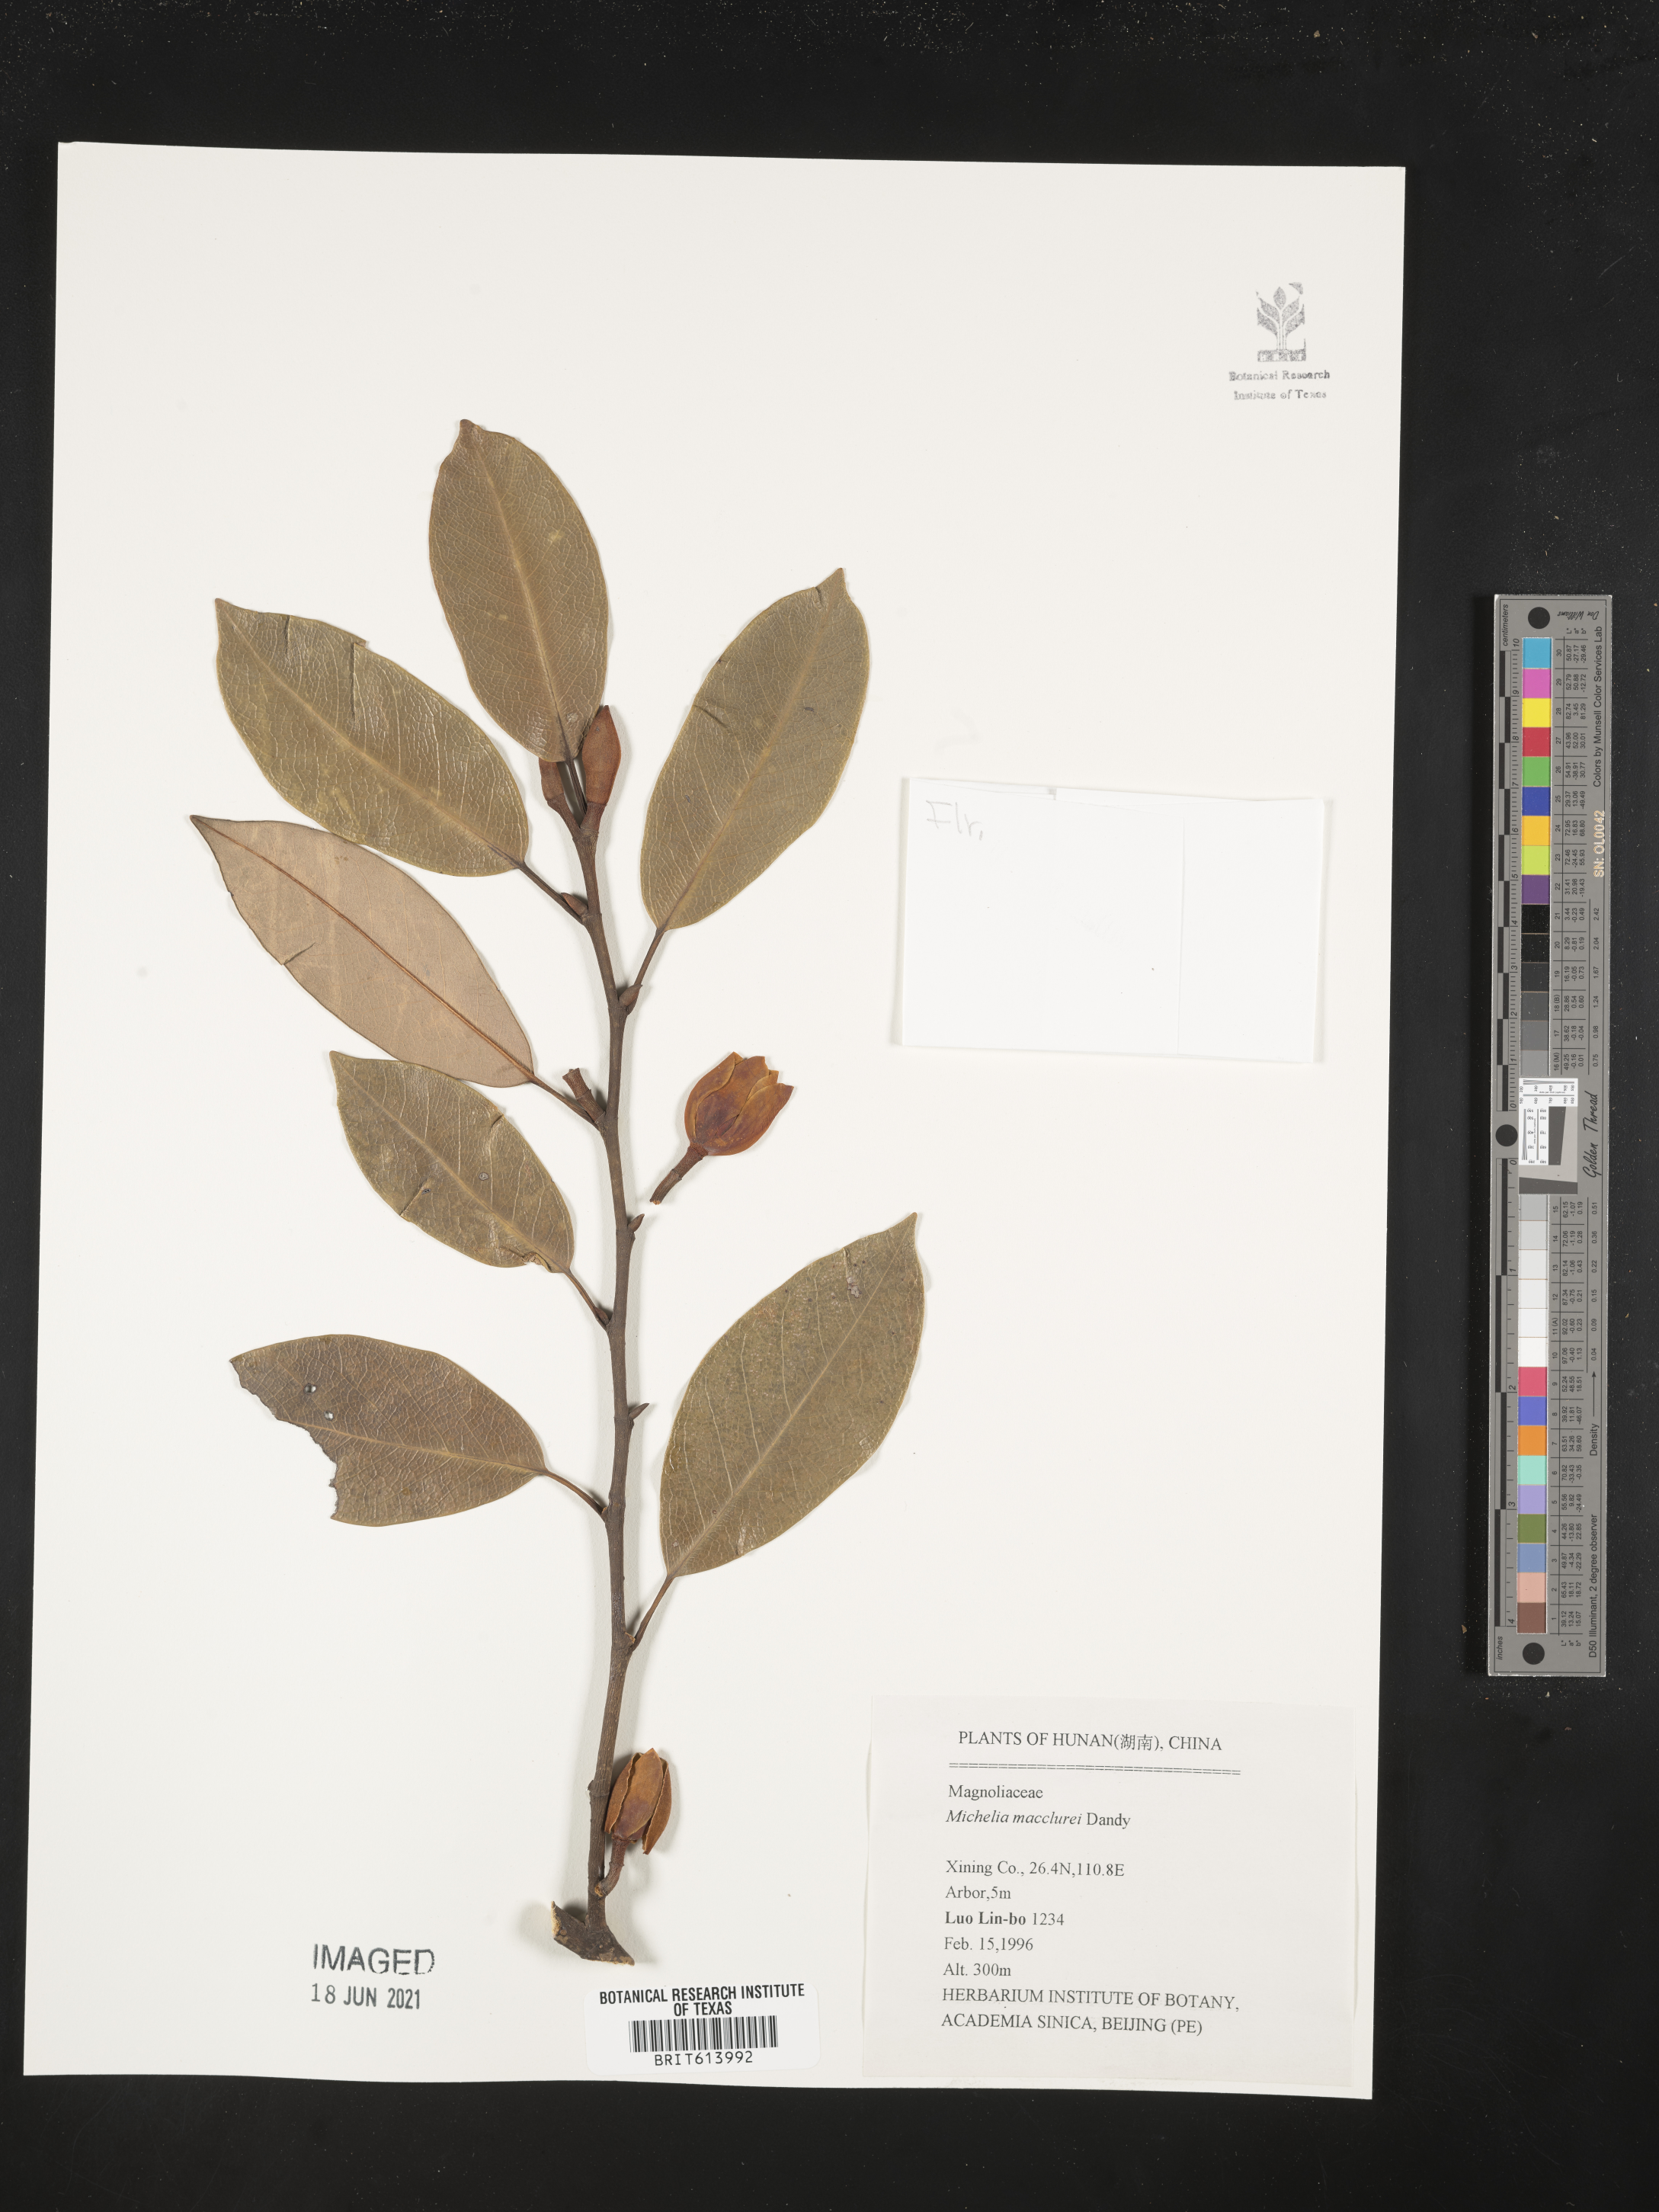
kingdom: Plantae
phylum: Tracheophyta
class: Magnoliopsida
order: Magnoliales
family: Magnoliaceae
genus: Magnolia
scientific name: Magnolia macclurei
